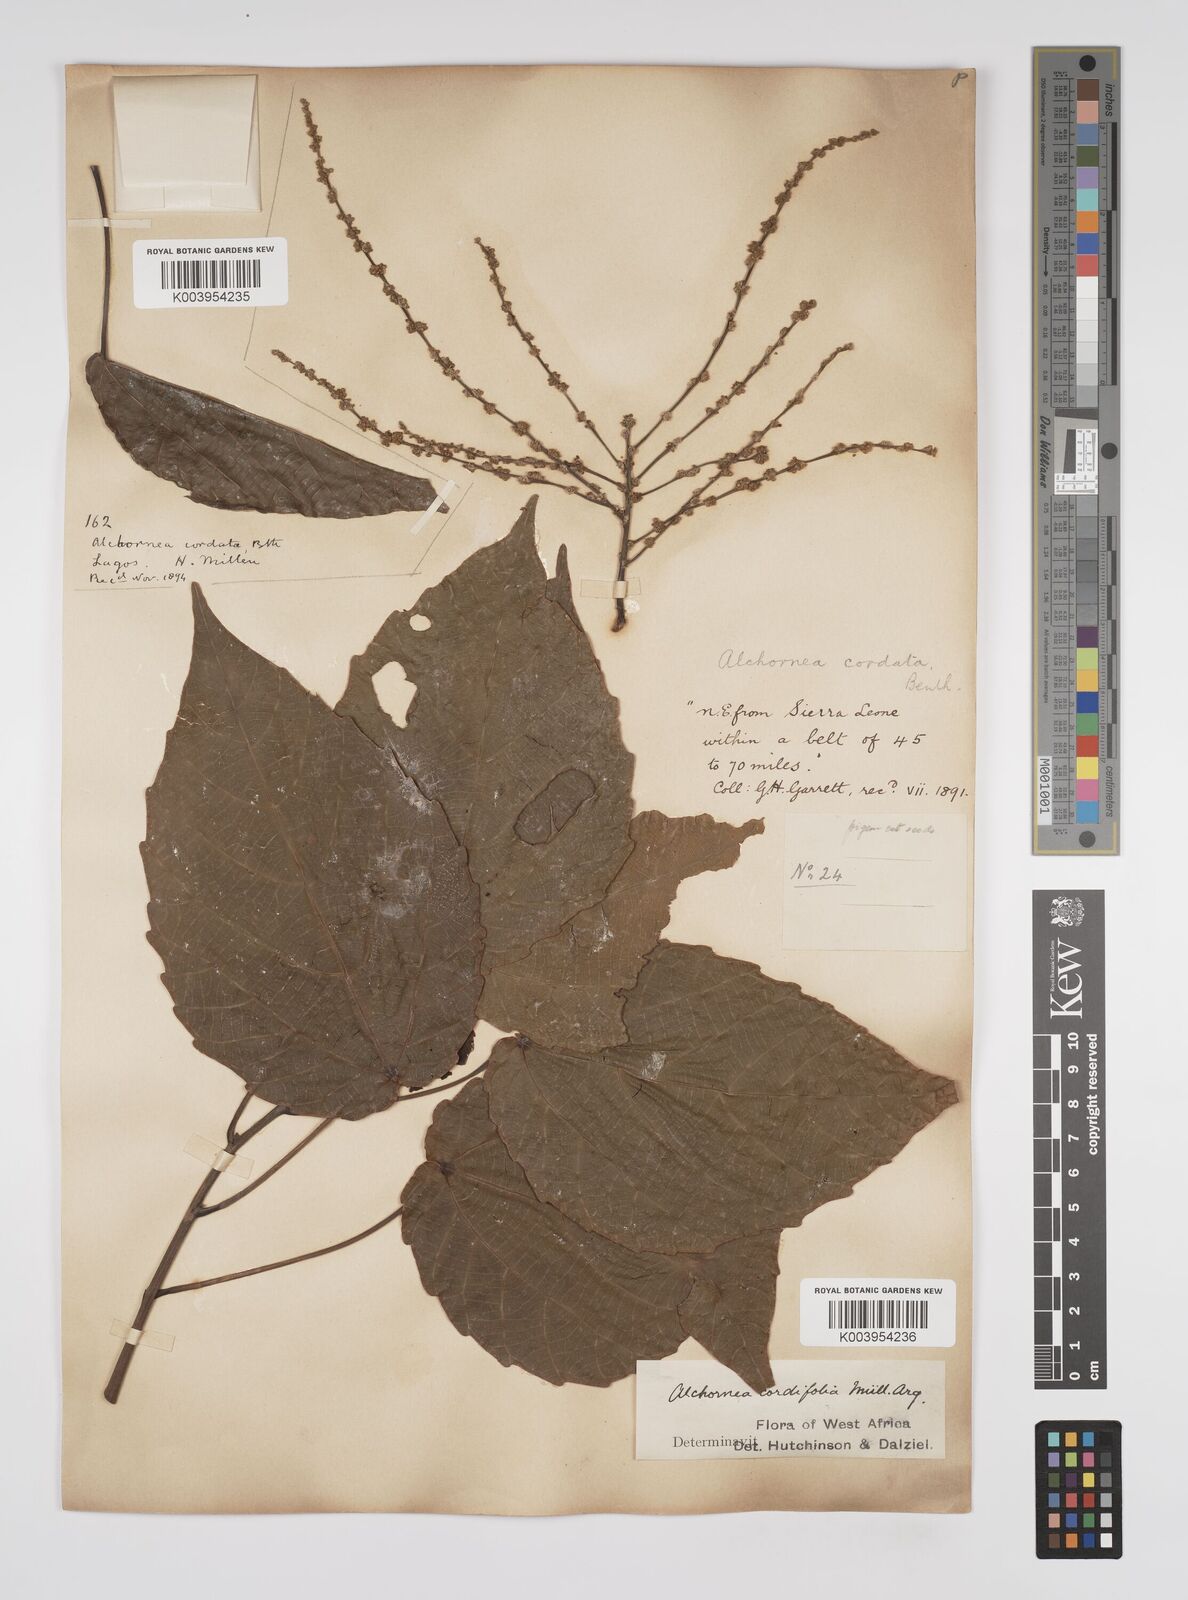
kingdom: Plantae
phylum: Tracheophyta
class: Magnoliopsida
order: Malpighiales
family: Euphorbiaceae
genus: Alchornea
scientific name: Alchornea cordifolia
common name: Christmasbush
